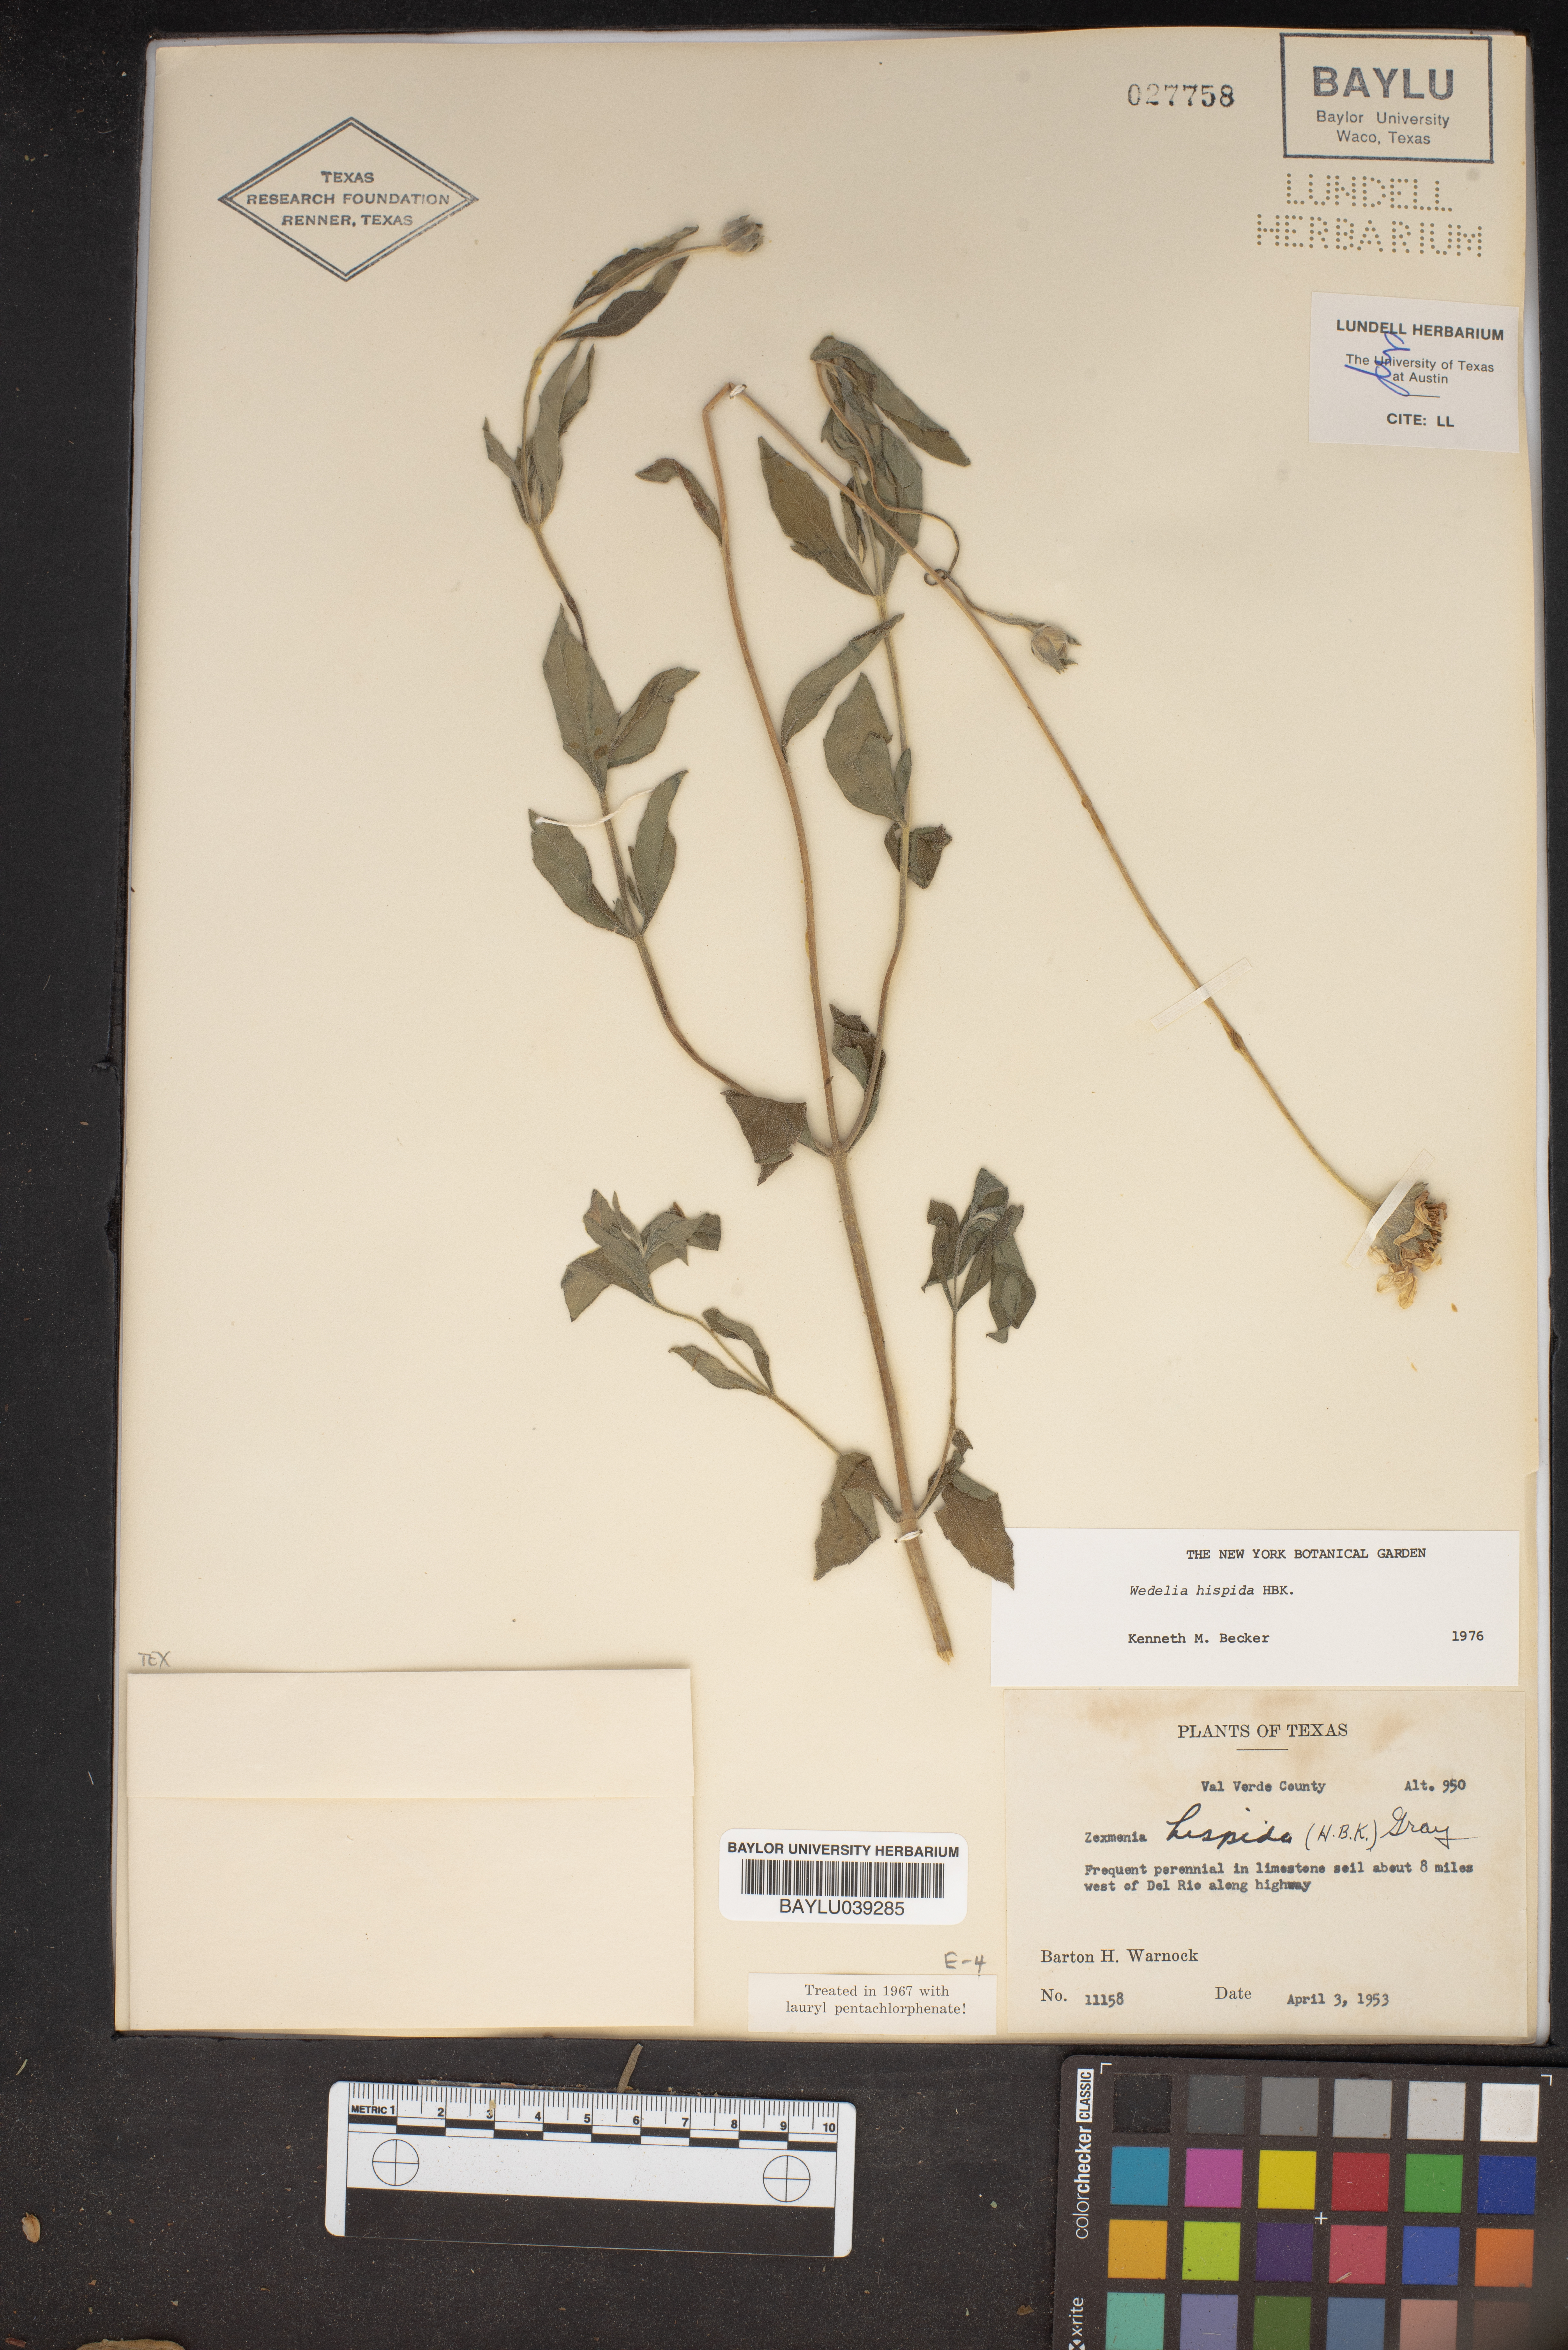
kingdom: Plantae
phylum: Tracheophyta
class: Magnoliopsida
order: Asterales
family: Asteraceae
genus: Wedelia
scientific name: Wedelia acapulcensis
